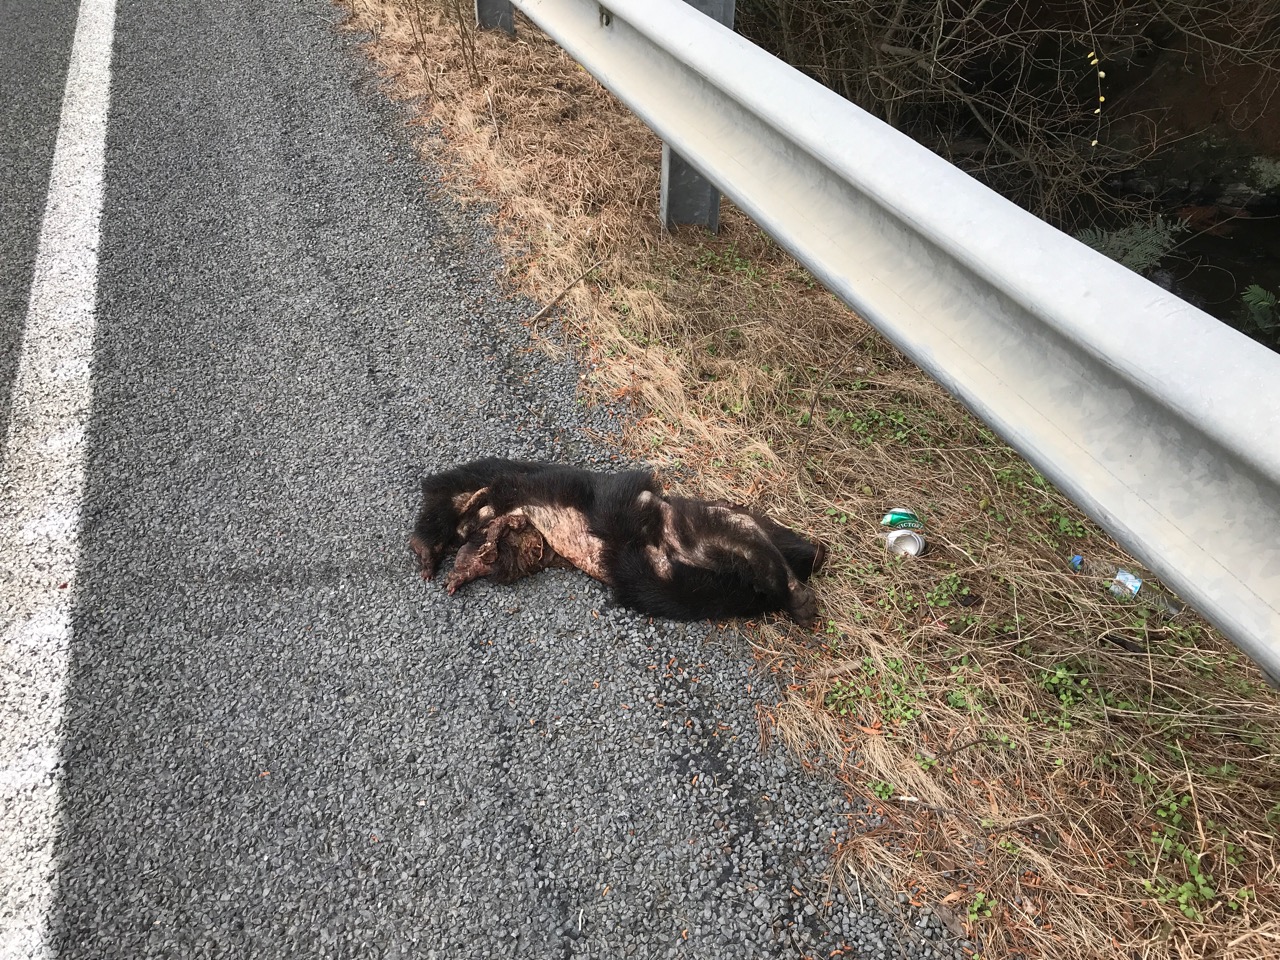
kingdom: Animalia
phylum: Chordata
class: Mammalia
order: Diprotodontia
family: Vombatidae
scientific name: Vombatidae
